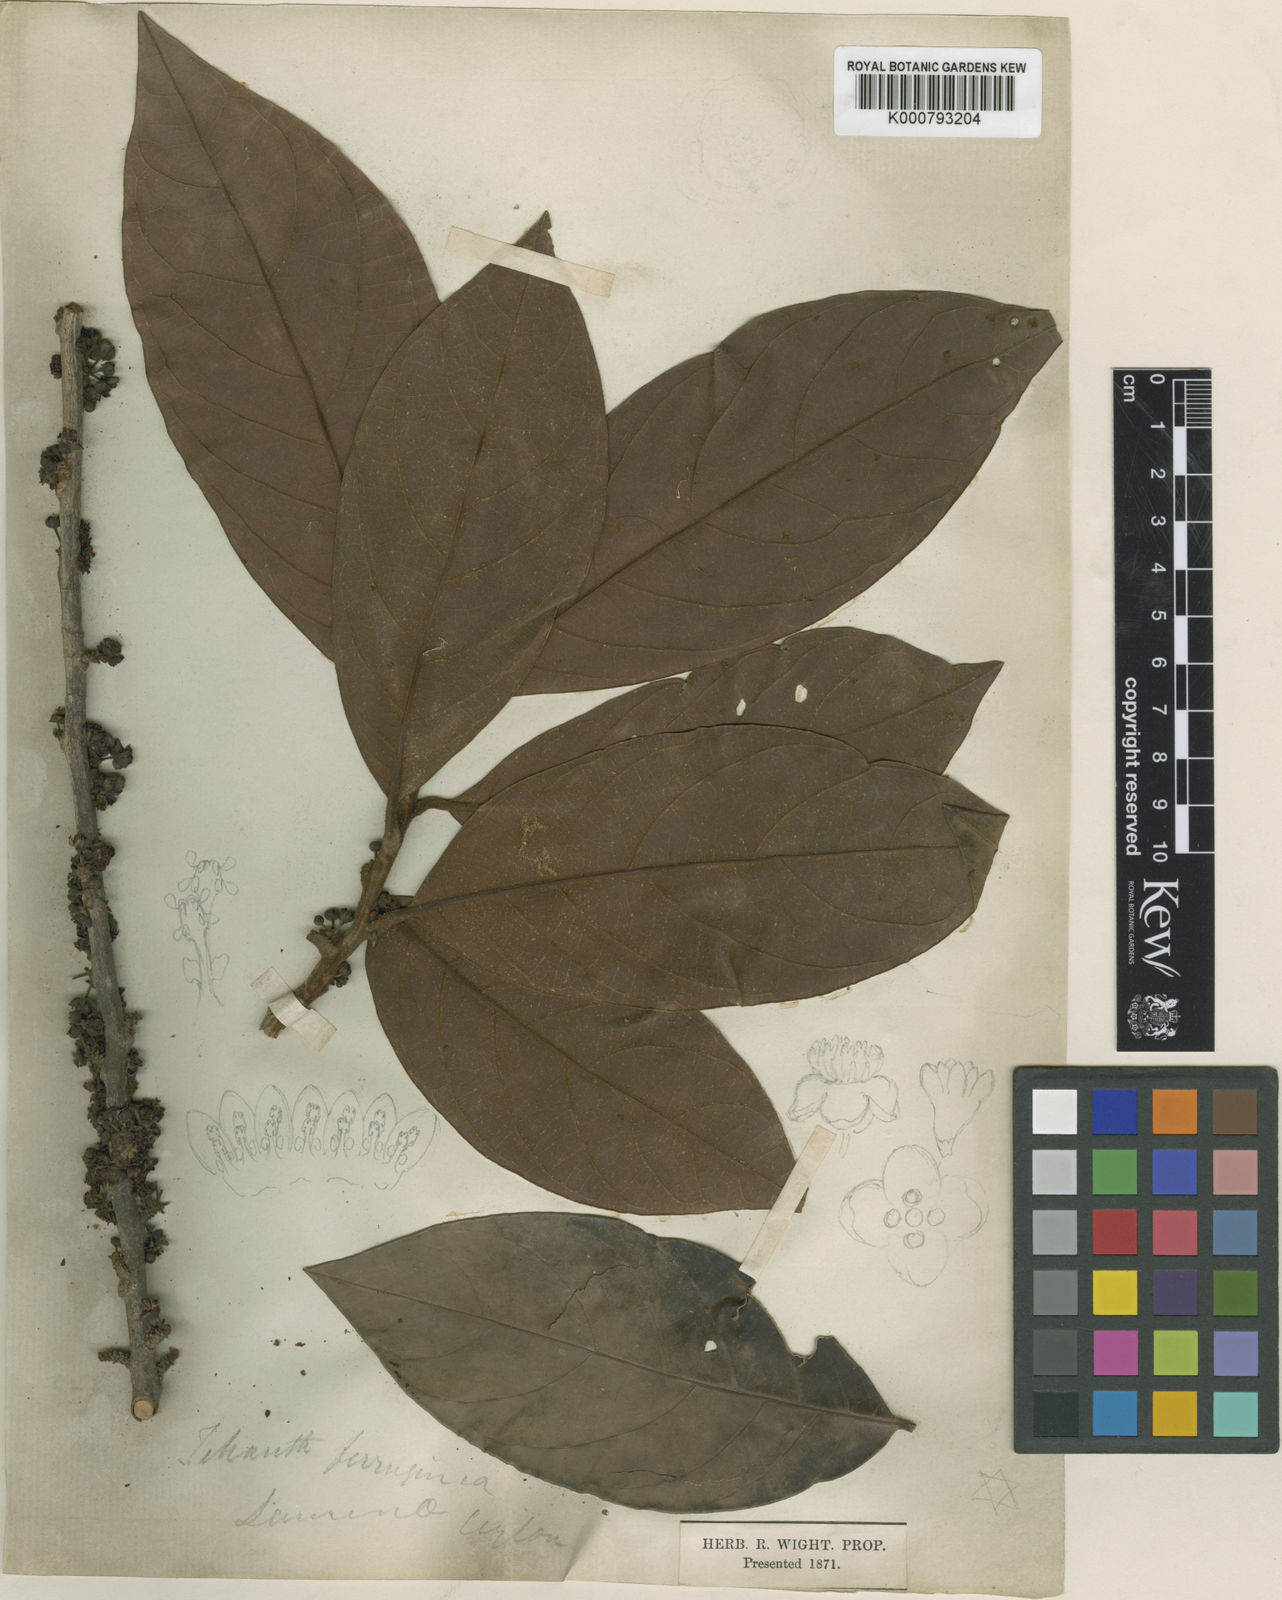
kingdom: Plantae
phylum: Tracheophyta
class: Magnoliopsida
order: Laurales
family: Lauraceae
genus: Litsea
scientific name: Litsea ligustrina
